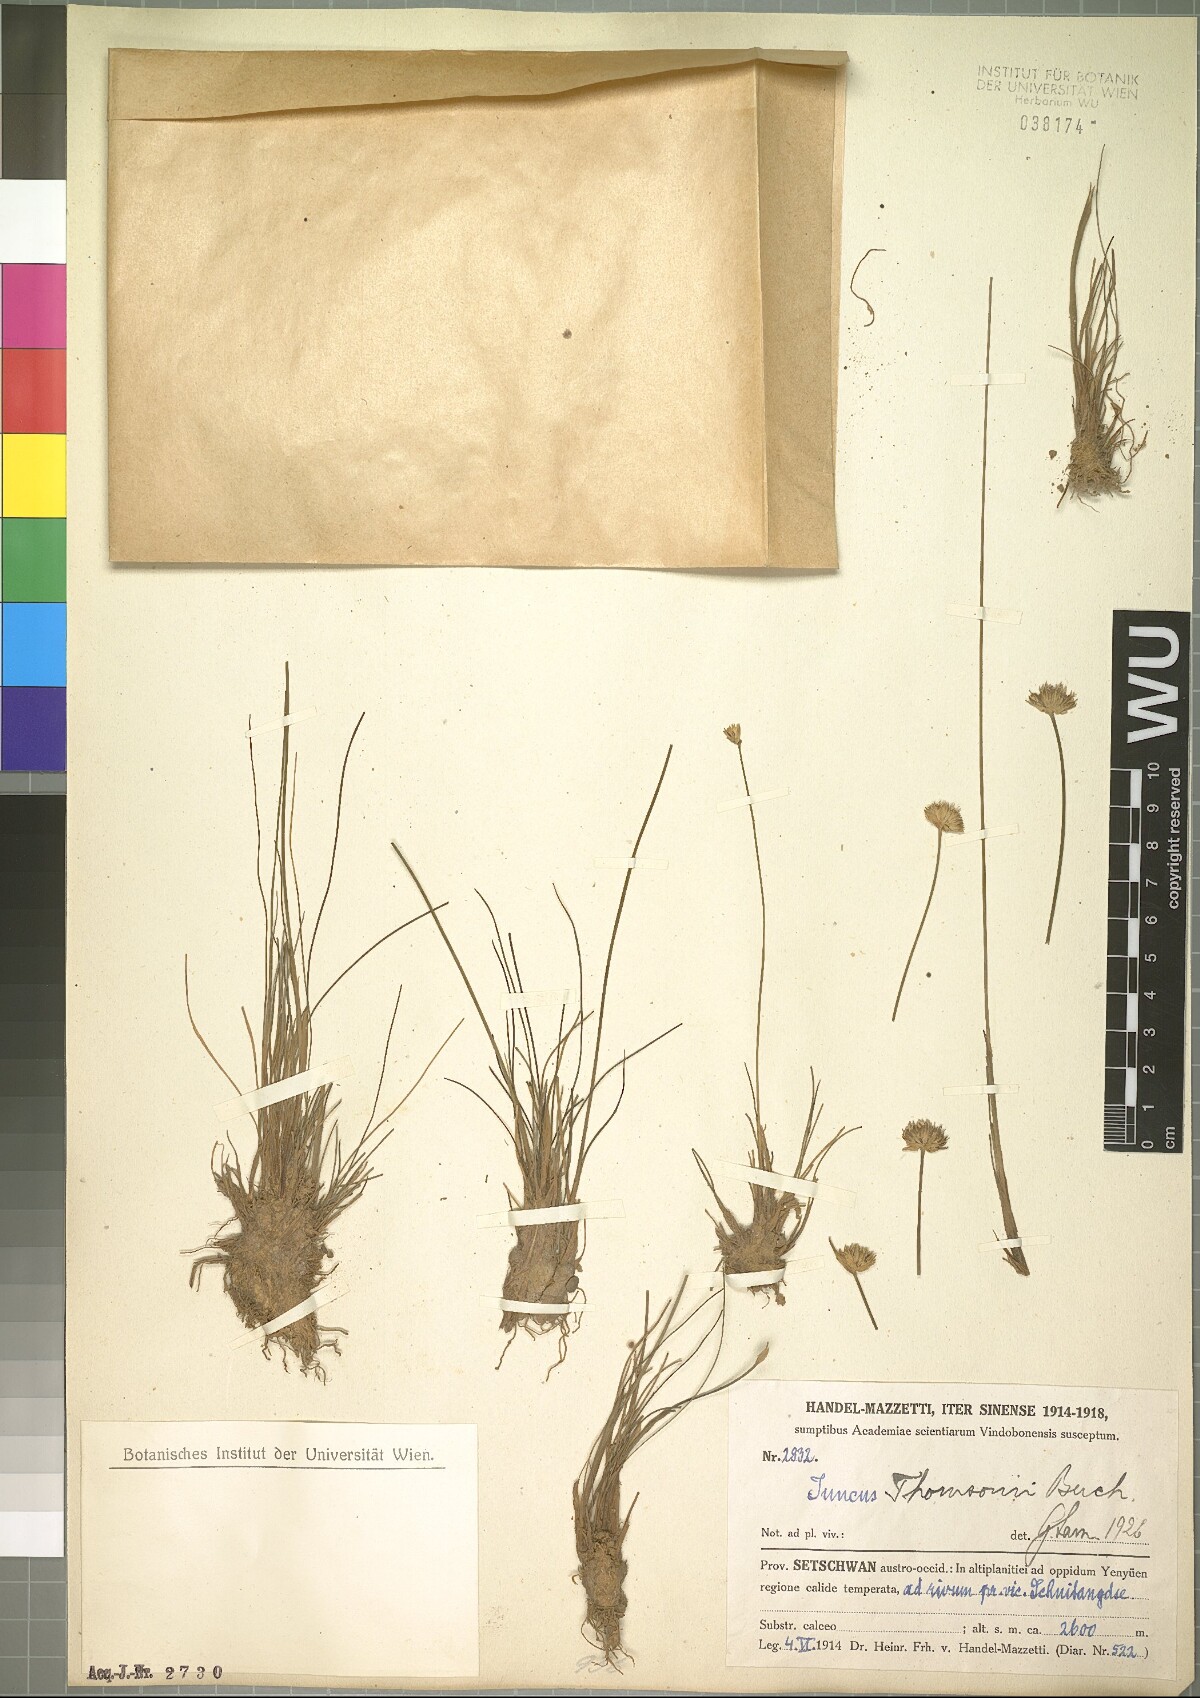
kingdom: Plantae
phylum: Tracheophyta
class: Liliopsida
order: Poales
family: Juncaceae
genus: Juncus
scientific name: Juncus thomsonii
